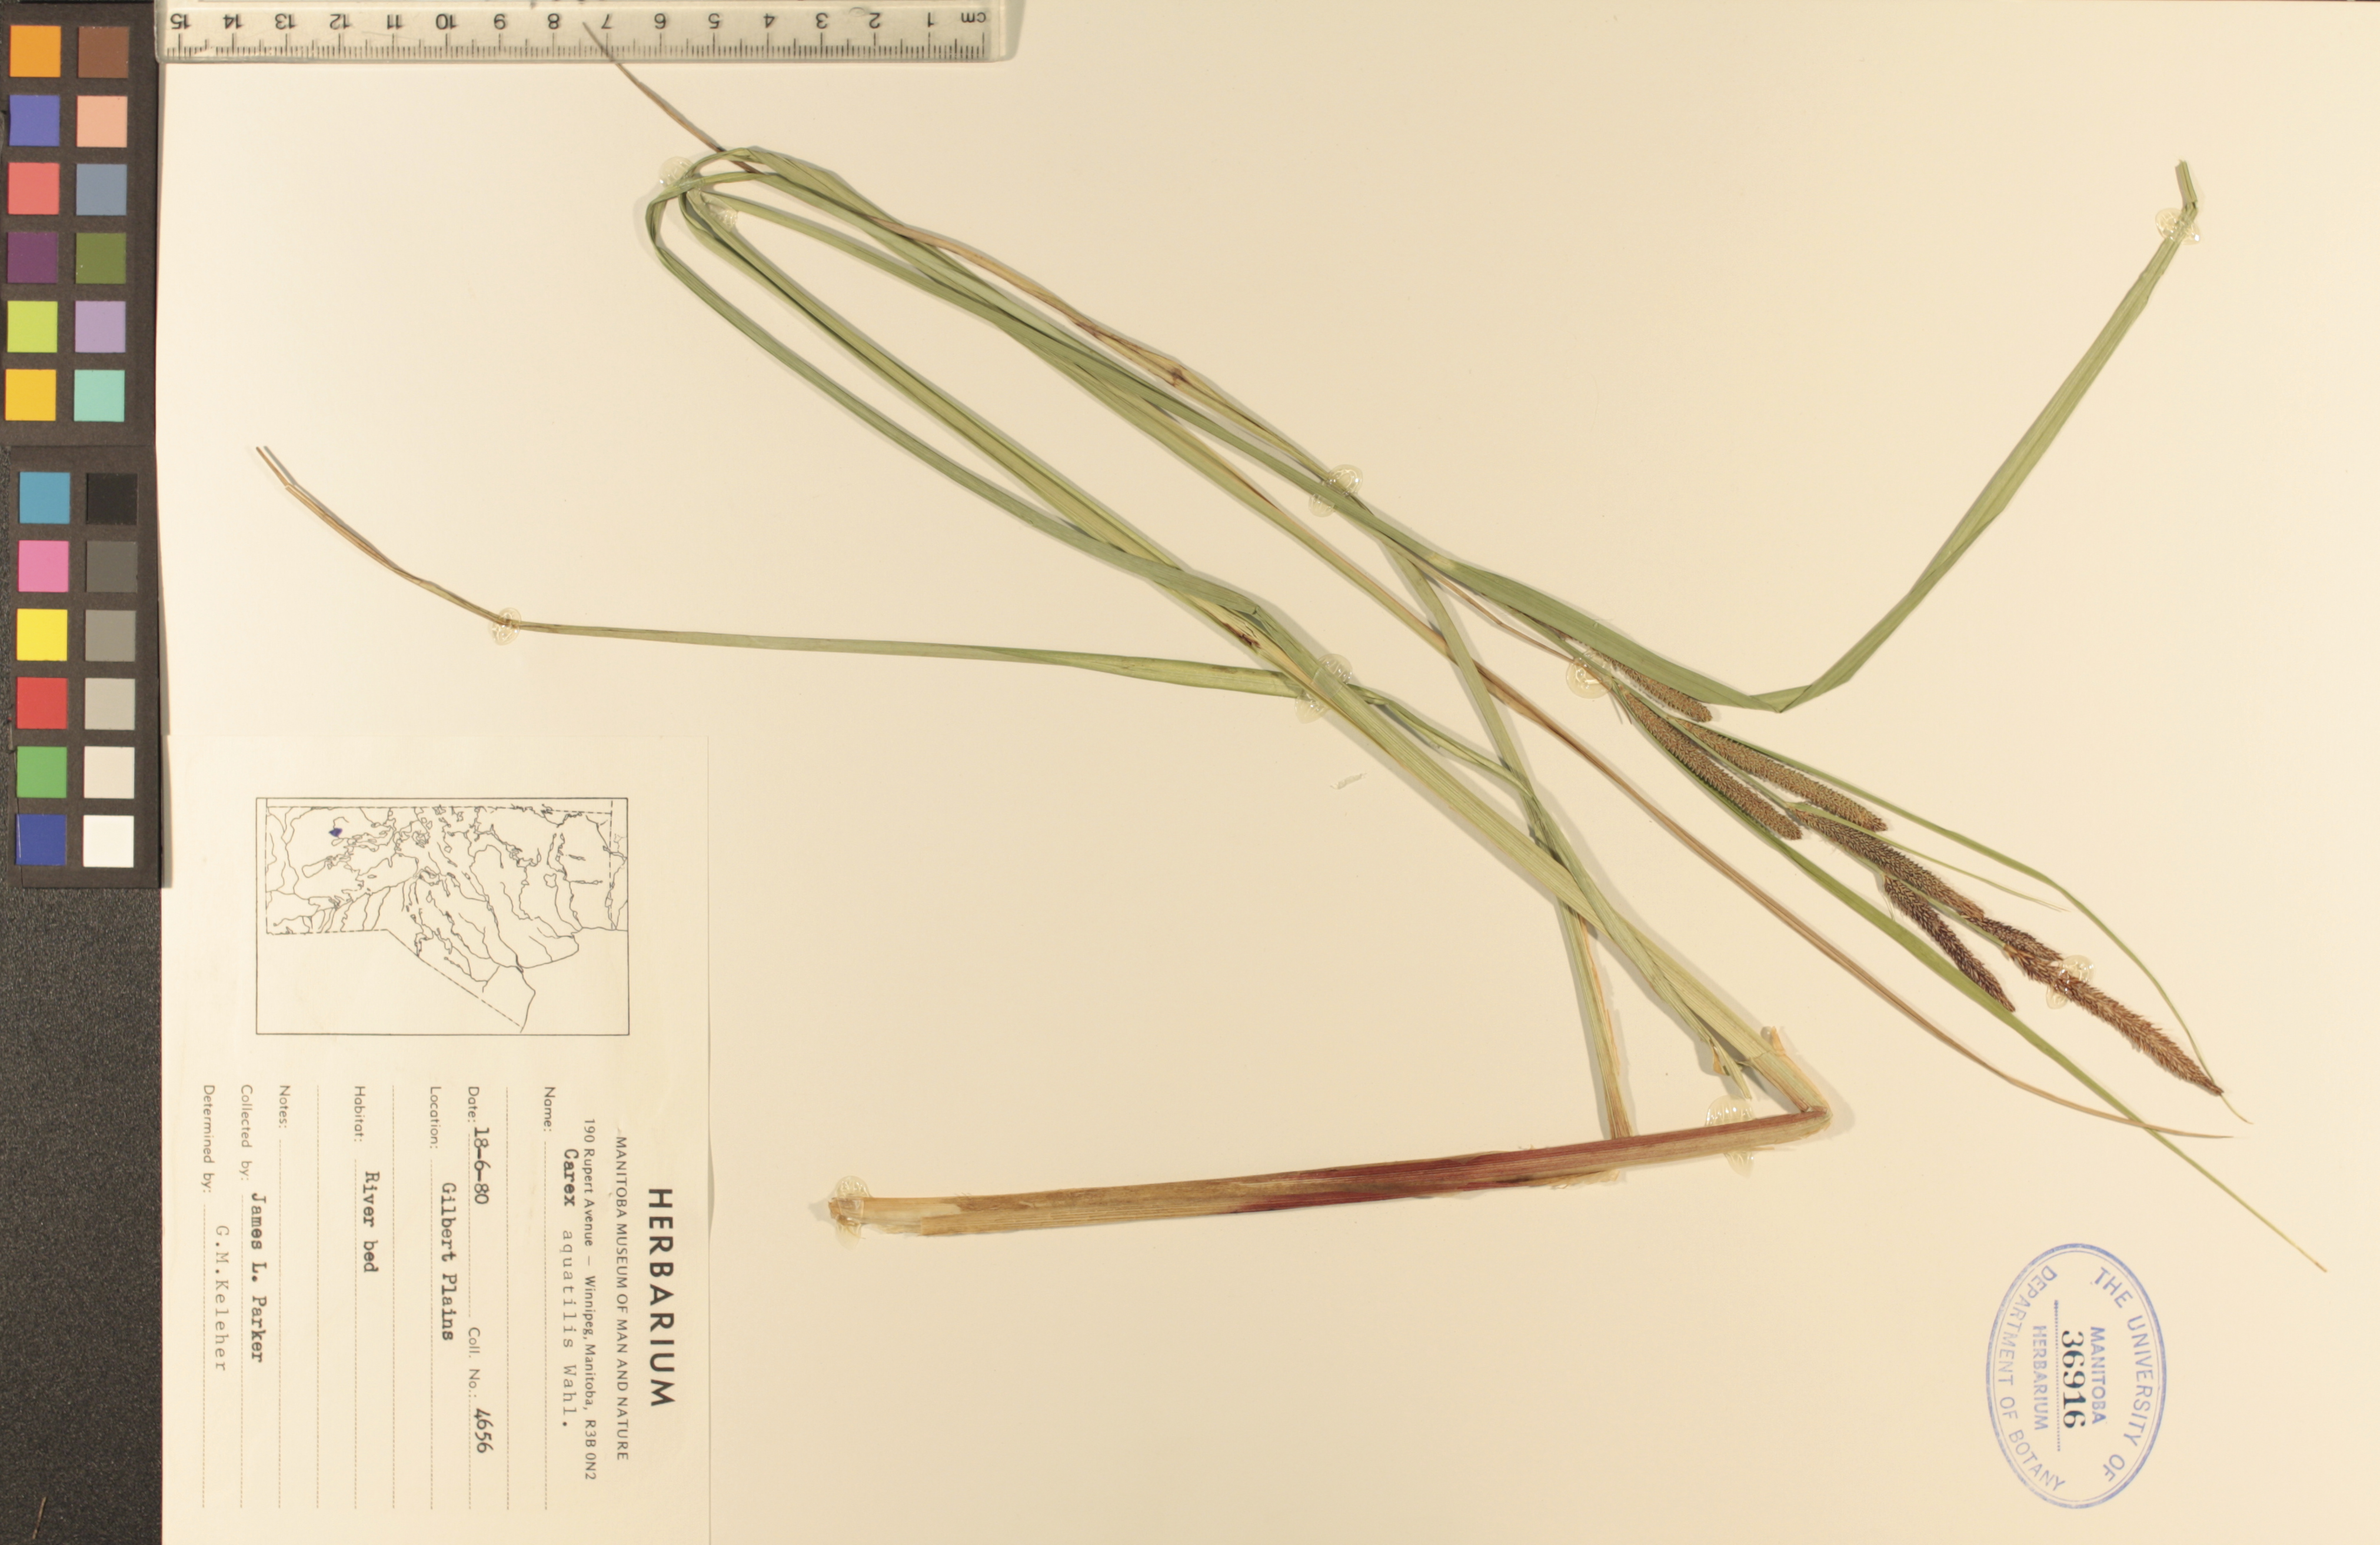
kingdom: Plantae
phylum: Tracheophyta
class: Liliopsida
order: Poales
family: Cyperaceae
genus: Carex
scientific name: Carex aquatilis
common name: Water sedge
